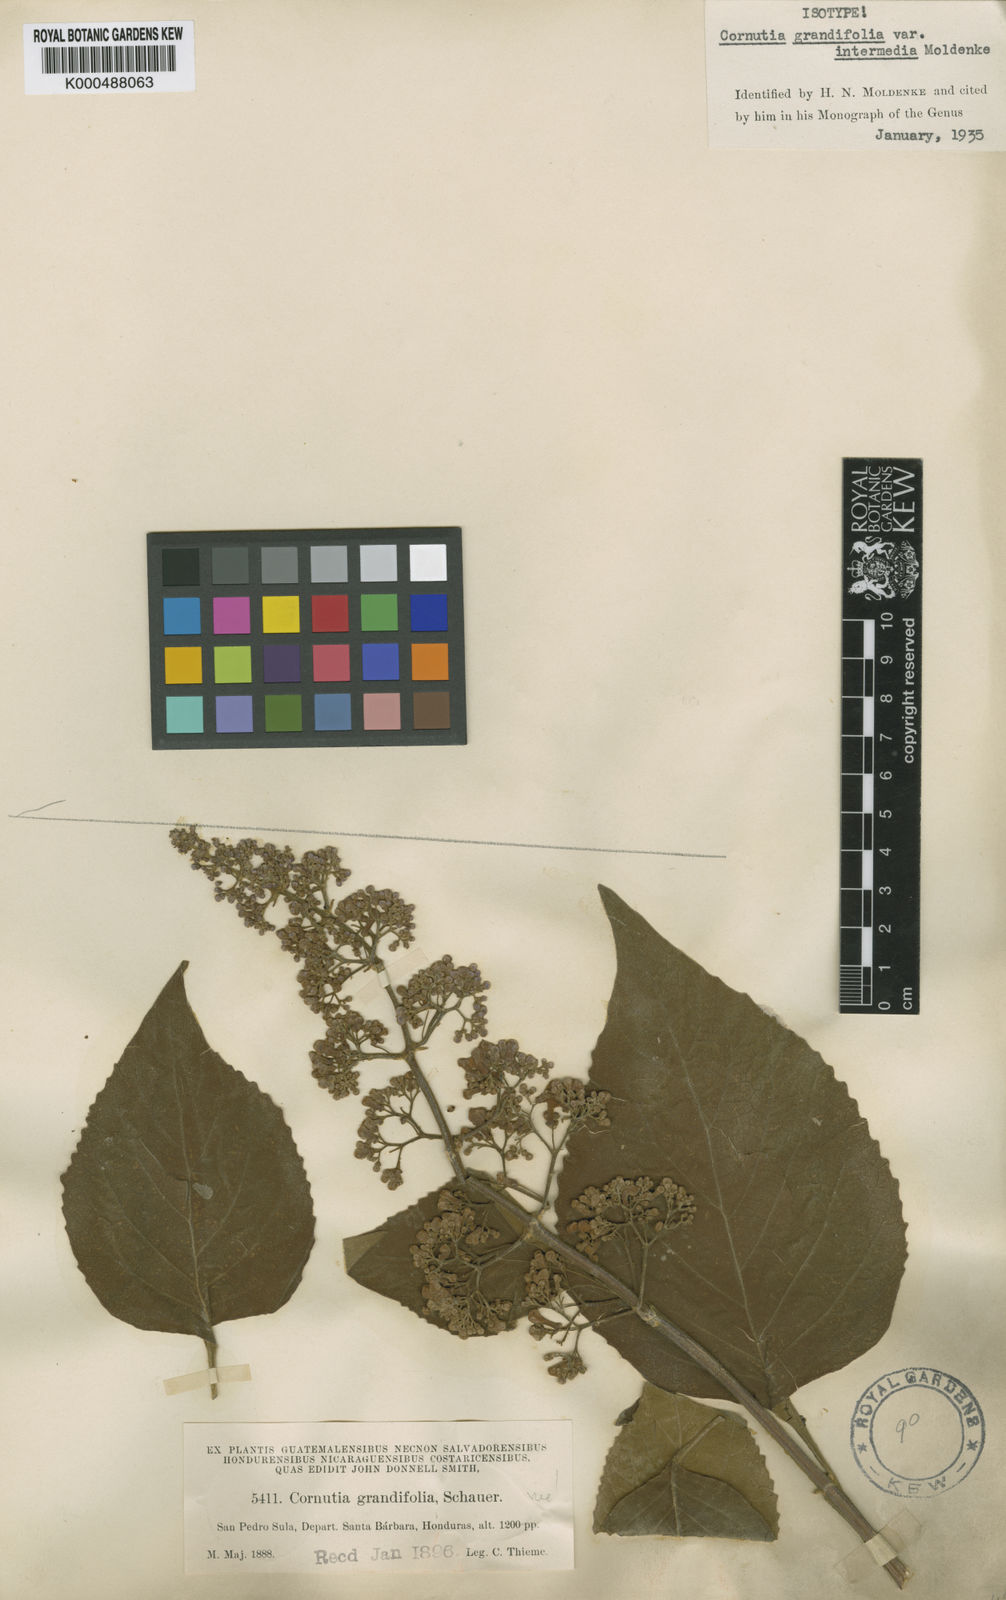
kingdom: Plantae
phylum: Tracheophyta
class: Magnoliopsida
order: Lamiales
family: Lamiaceae
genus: Cornutia
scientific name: Cornutia pyramidata
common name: Azulejo
